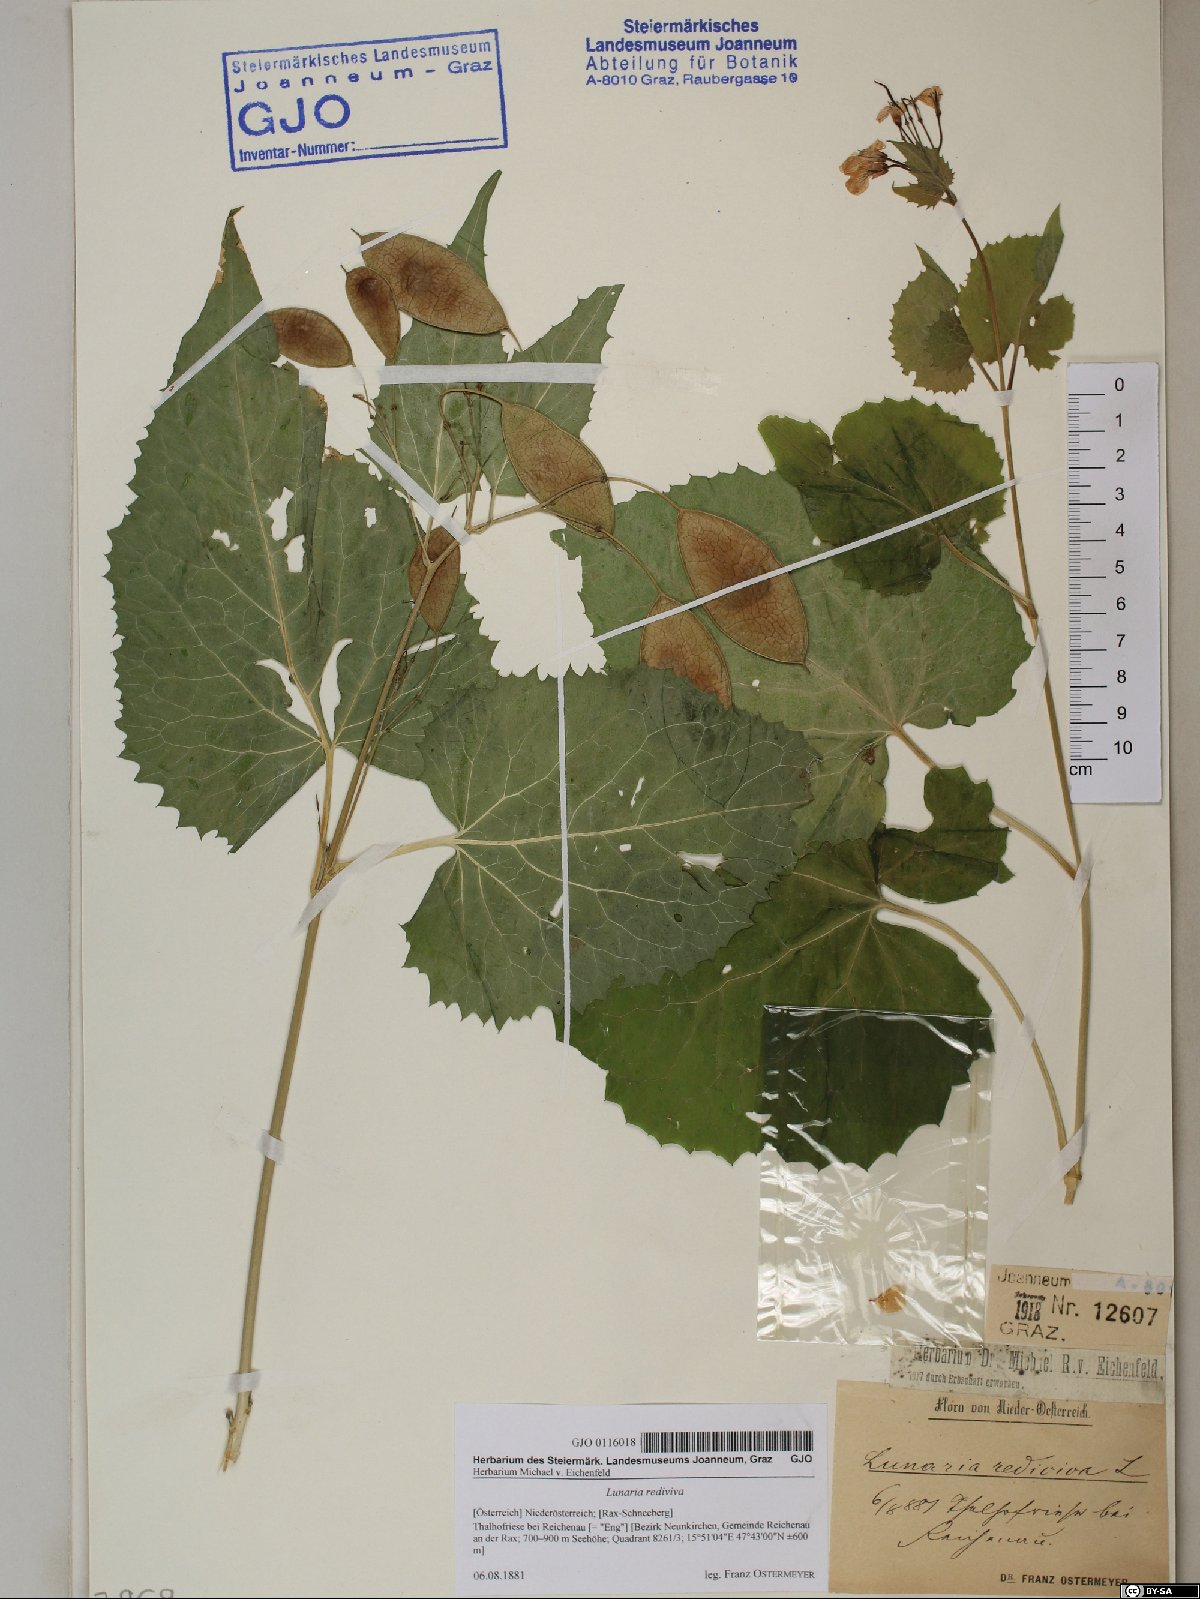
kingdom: Plantae
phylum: Tracheophyta
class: Magnoliopsida
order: Brassicales
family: Brassicaceae
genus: Lunaria
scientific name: Lunaria rediviva
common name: Perennial honesty
